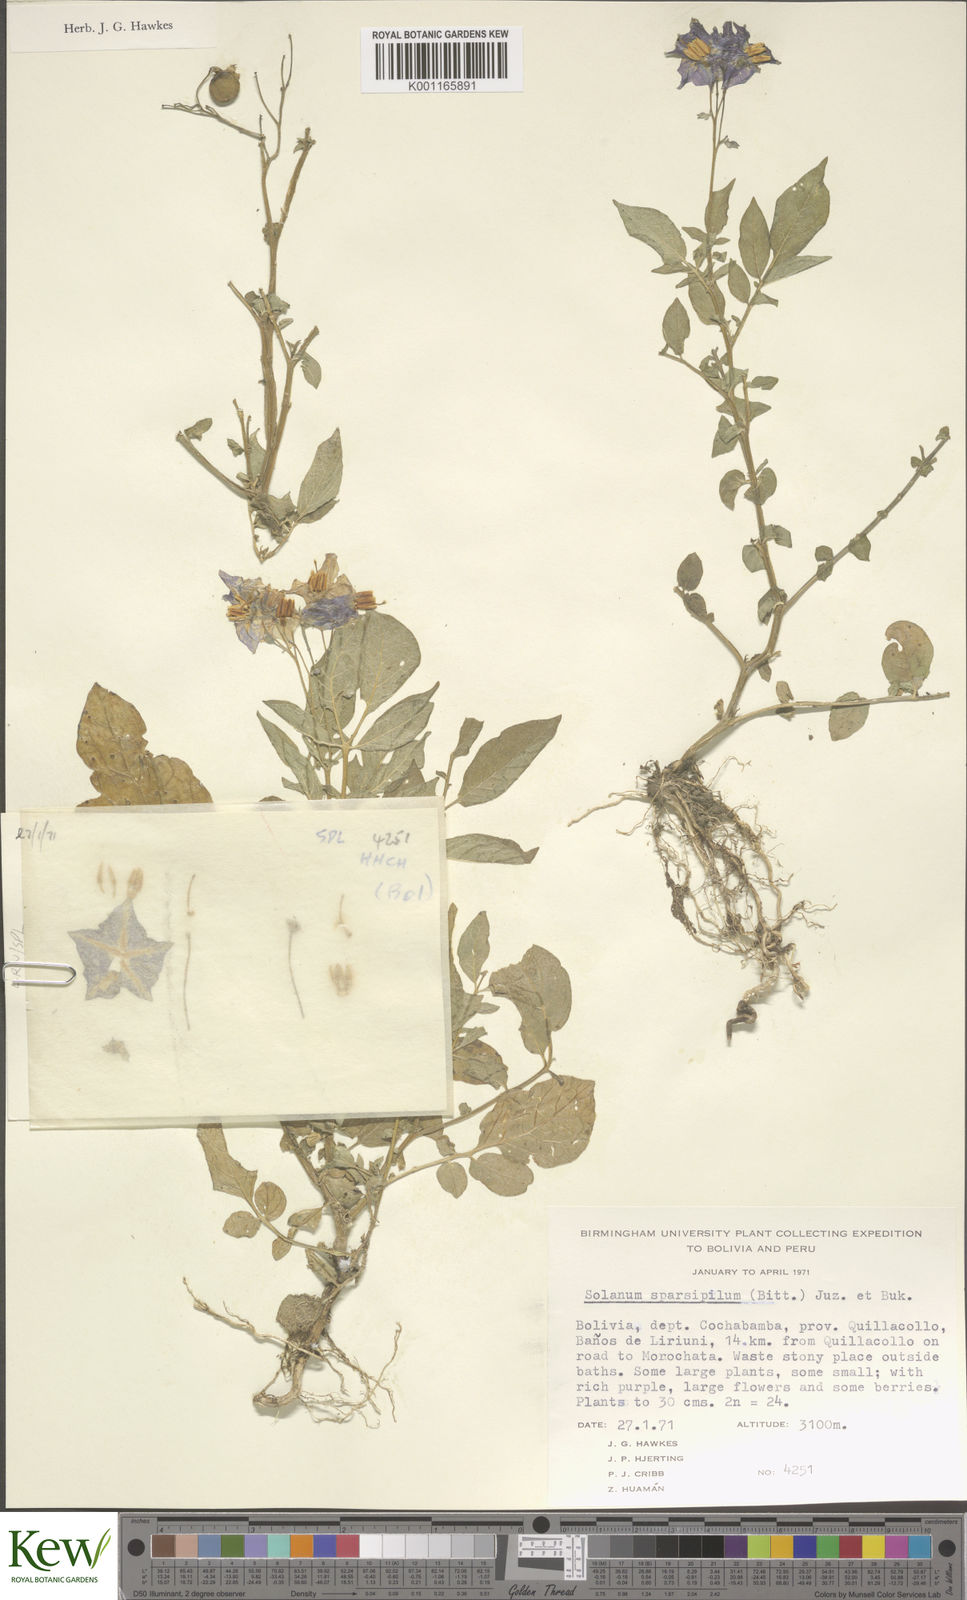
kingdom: Plantae
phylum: Tracheophyta
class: Magnoliopsida
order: Solanales
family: Solanaceae
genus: Solanum
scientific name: Solanum brevicaule
